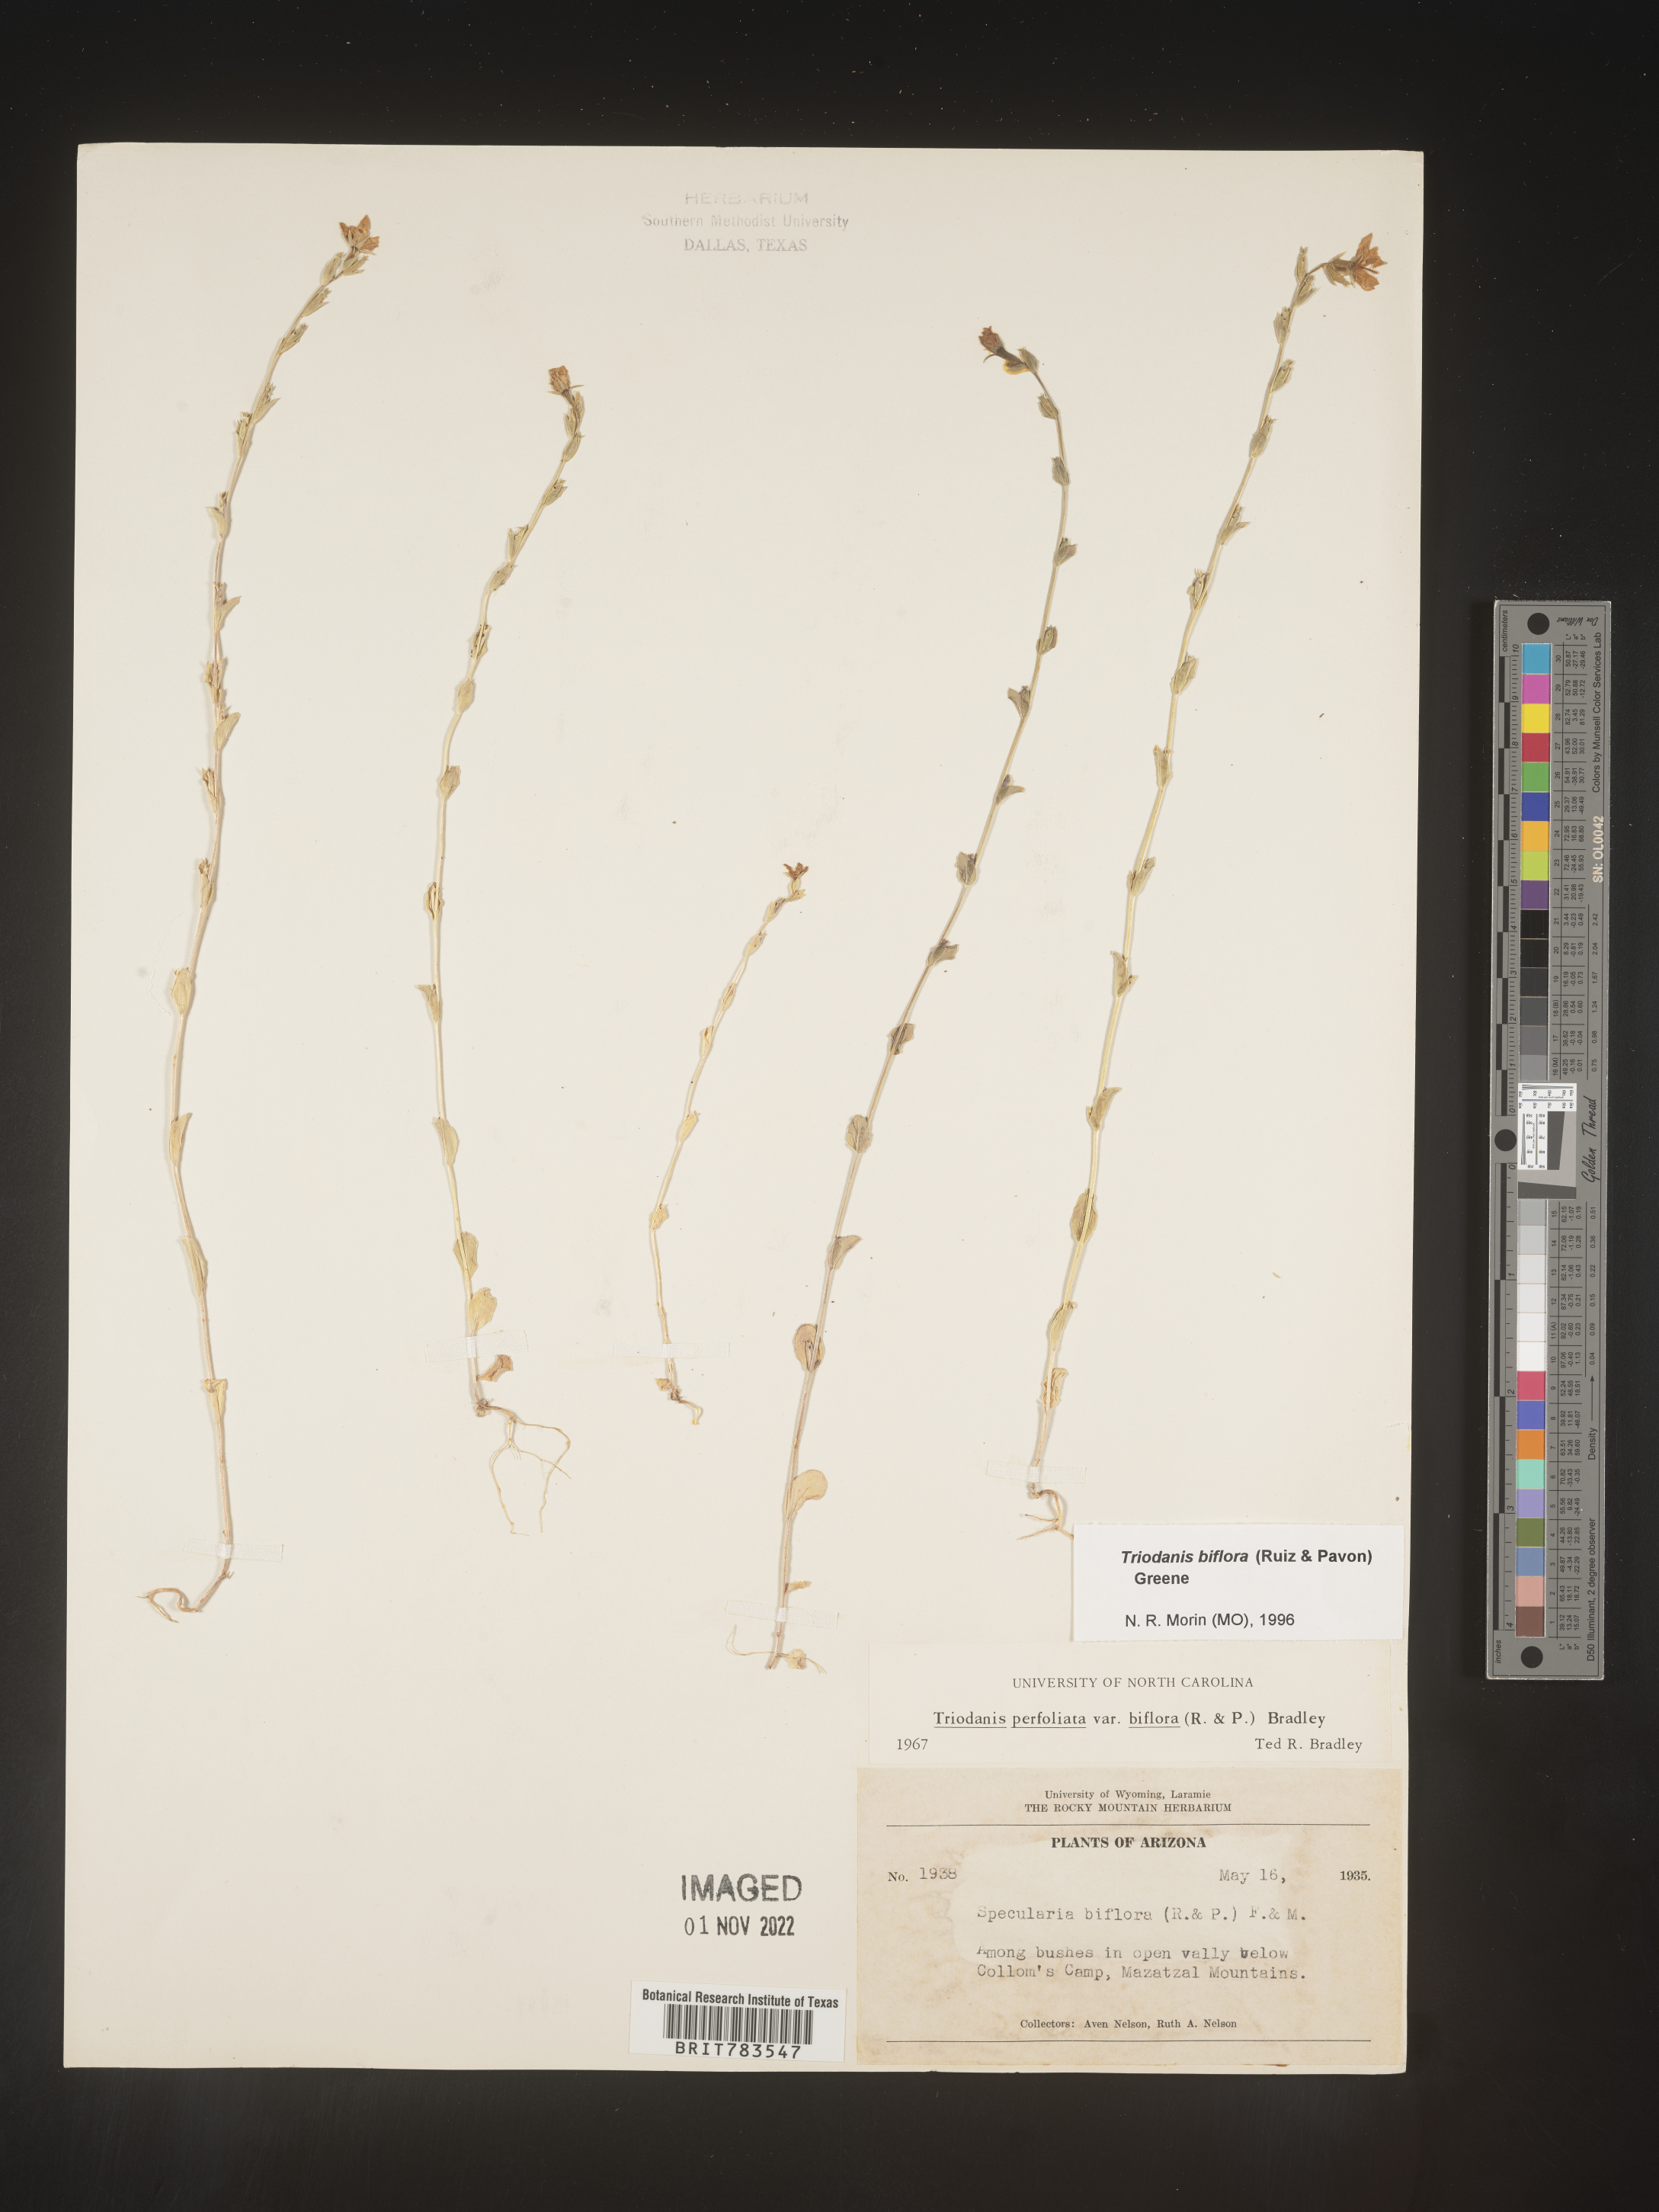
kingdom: Plantae
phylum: Tracheophyta
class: Magnoliopsida
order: Asterales
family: Campanulaceae
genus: Triodanis
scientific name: Triodanis perfoliata
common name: Clasping venus' looking-glass
